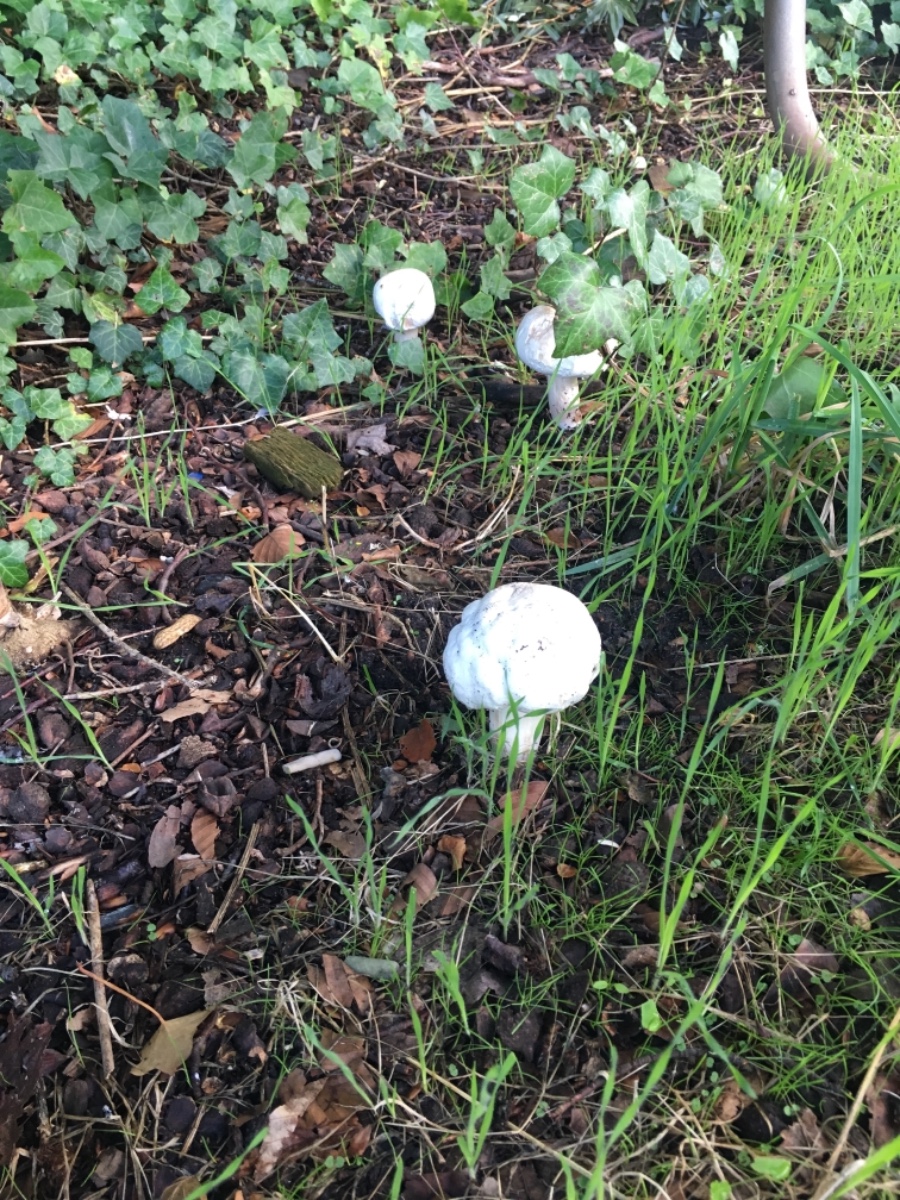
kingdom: Fungi
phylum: Basidiomycota
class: Agaricomycetes
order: Agaricales
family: Agaricaceae
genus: Agaricus
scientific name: Agaricus xanthodermus
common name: karbol-champignon
